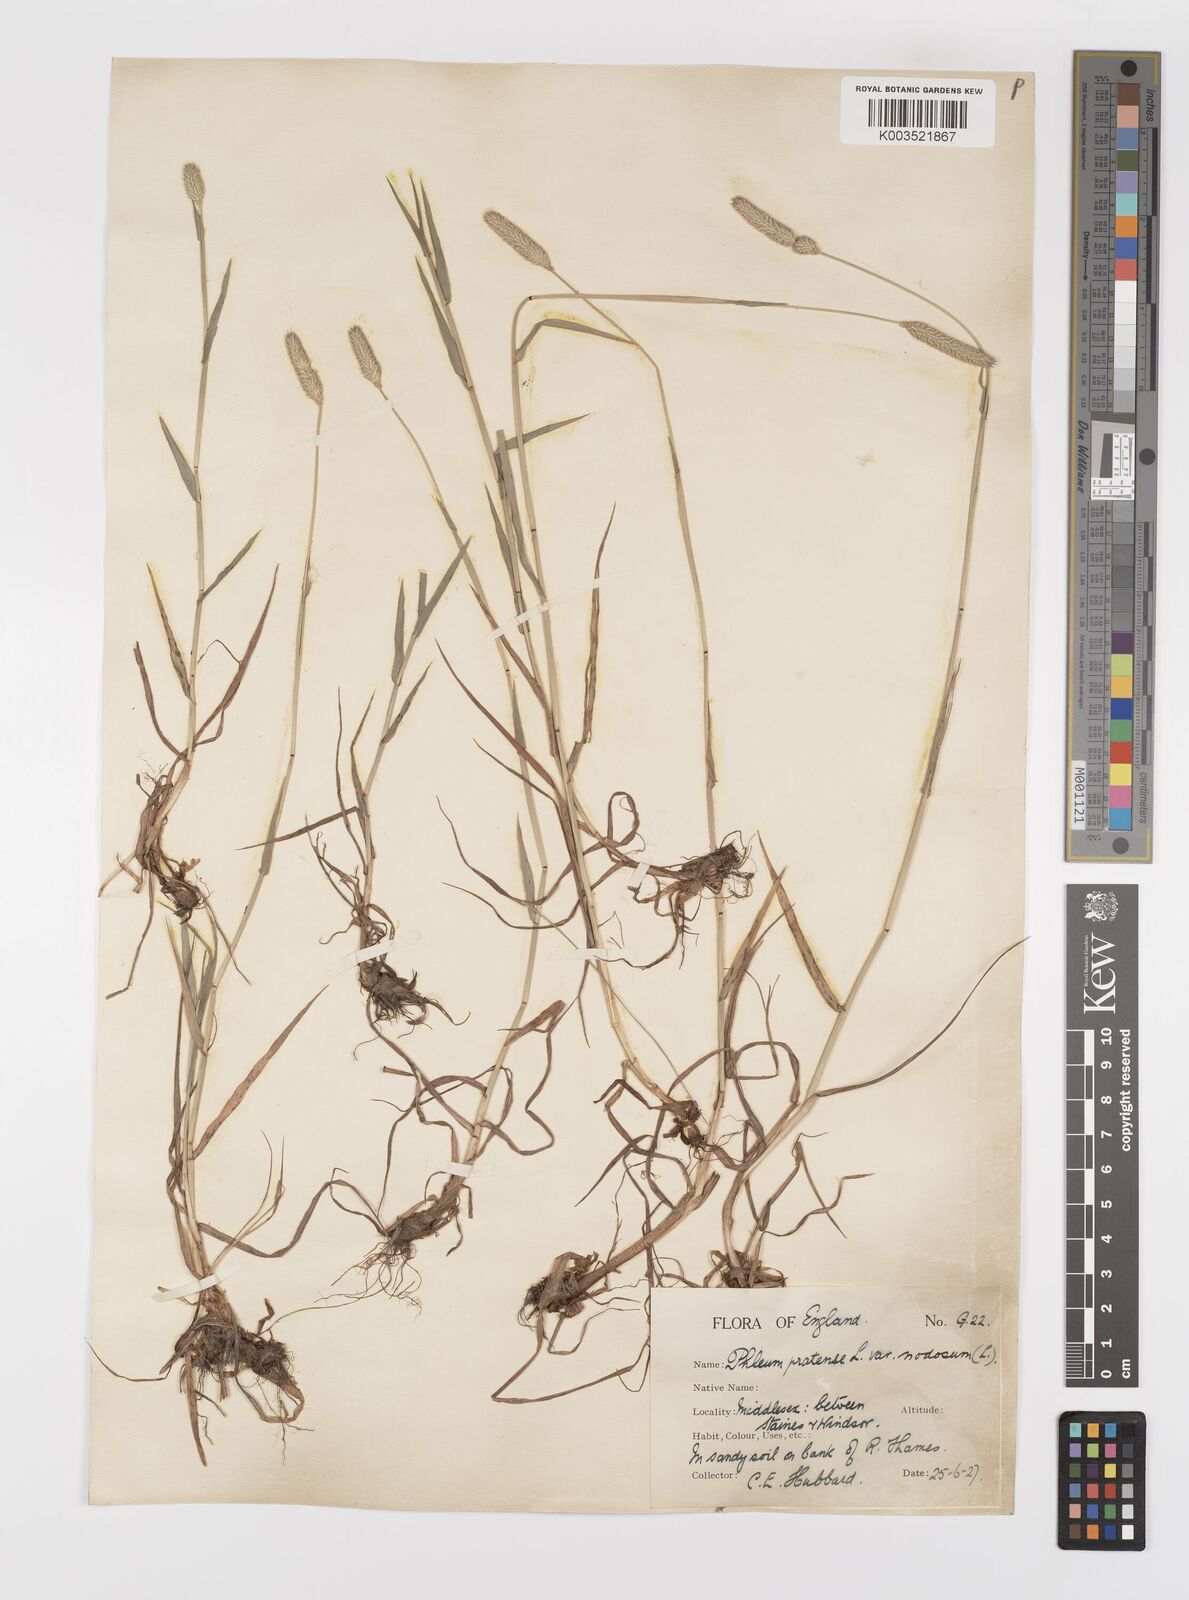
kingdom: Plantae
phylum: Tracheophyta
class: Liliopsida
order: Poales
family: Poaceae
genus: Phleum
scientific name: Phleum bertolonii
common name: Smaller cat's-tail
